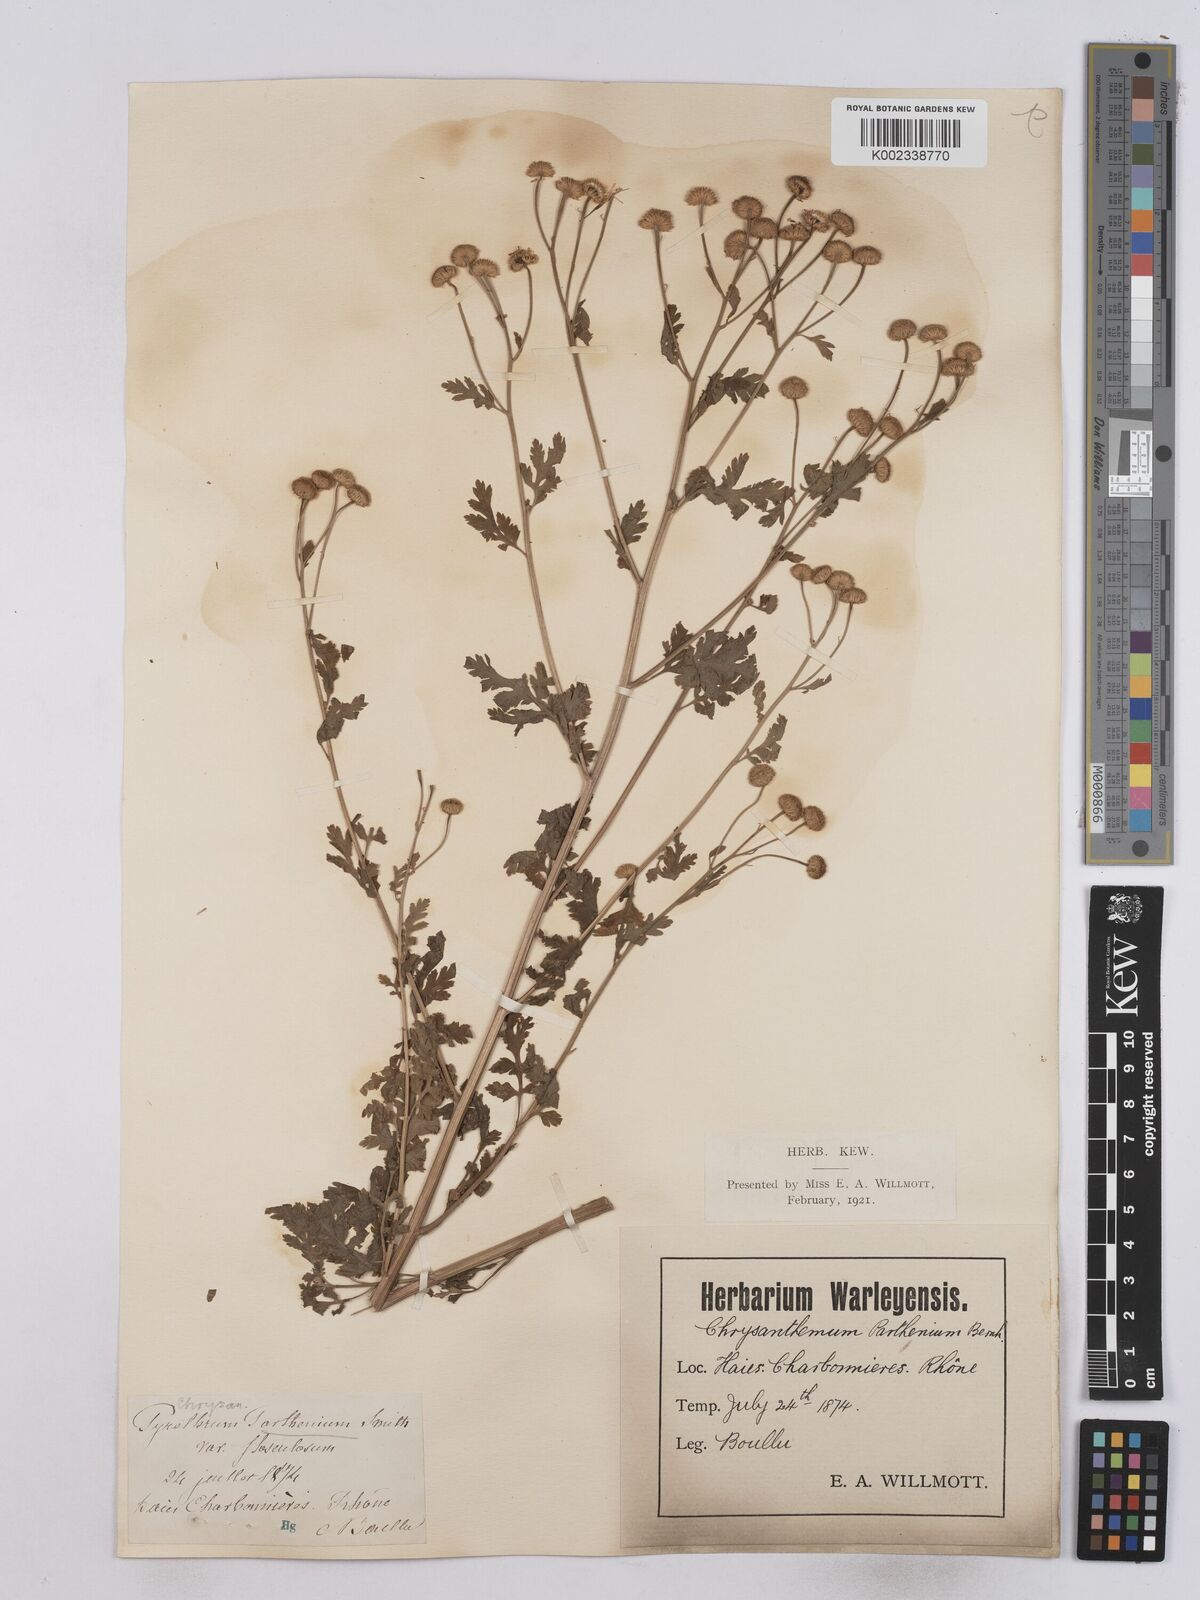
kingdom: Plantae
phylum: Tracheophyta
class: Magnoliopsida
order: Asterales
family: Asteraceae
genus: Tanacetum
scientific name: Tanacetum parthenium
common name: Feverfew
